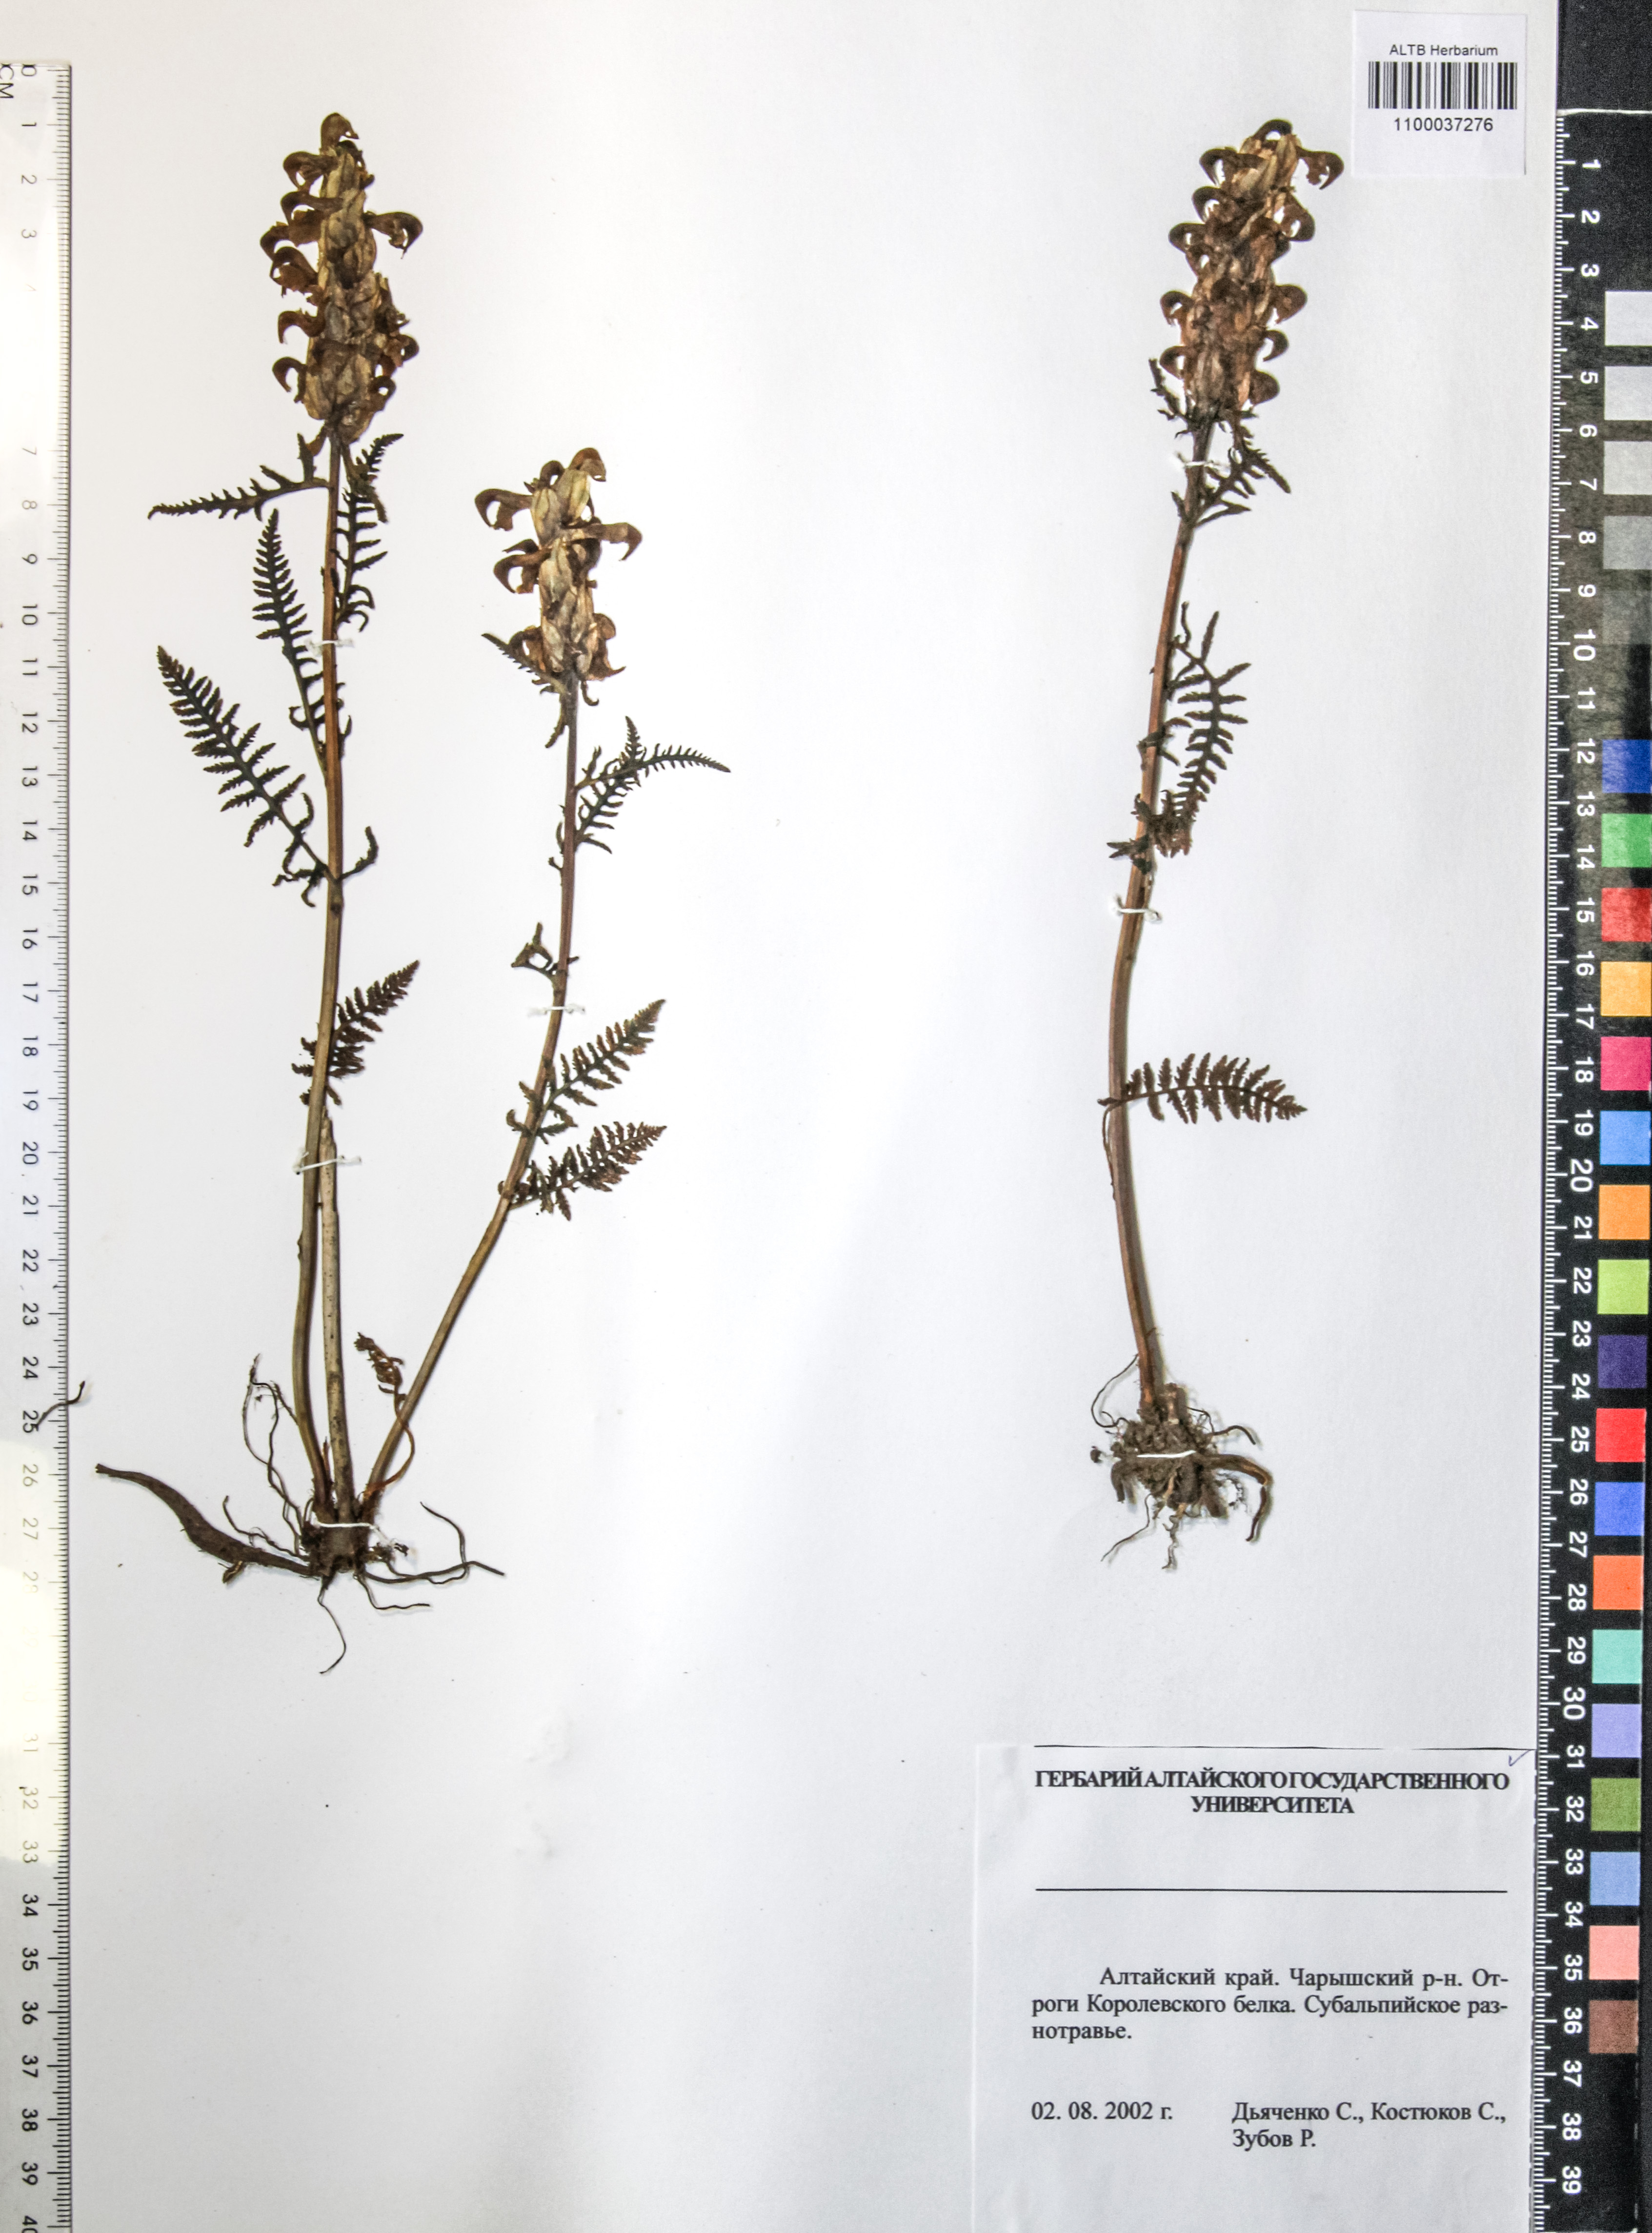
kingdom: Plantae
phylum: Tracheophyta
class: Magnoliopsida
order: Lamiales
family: Orobanchaceae
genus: Pedicularis
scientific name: Pedicularis compacta
